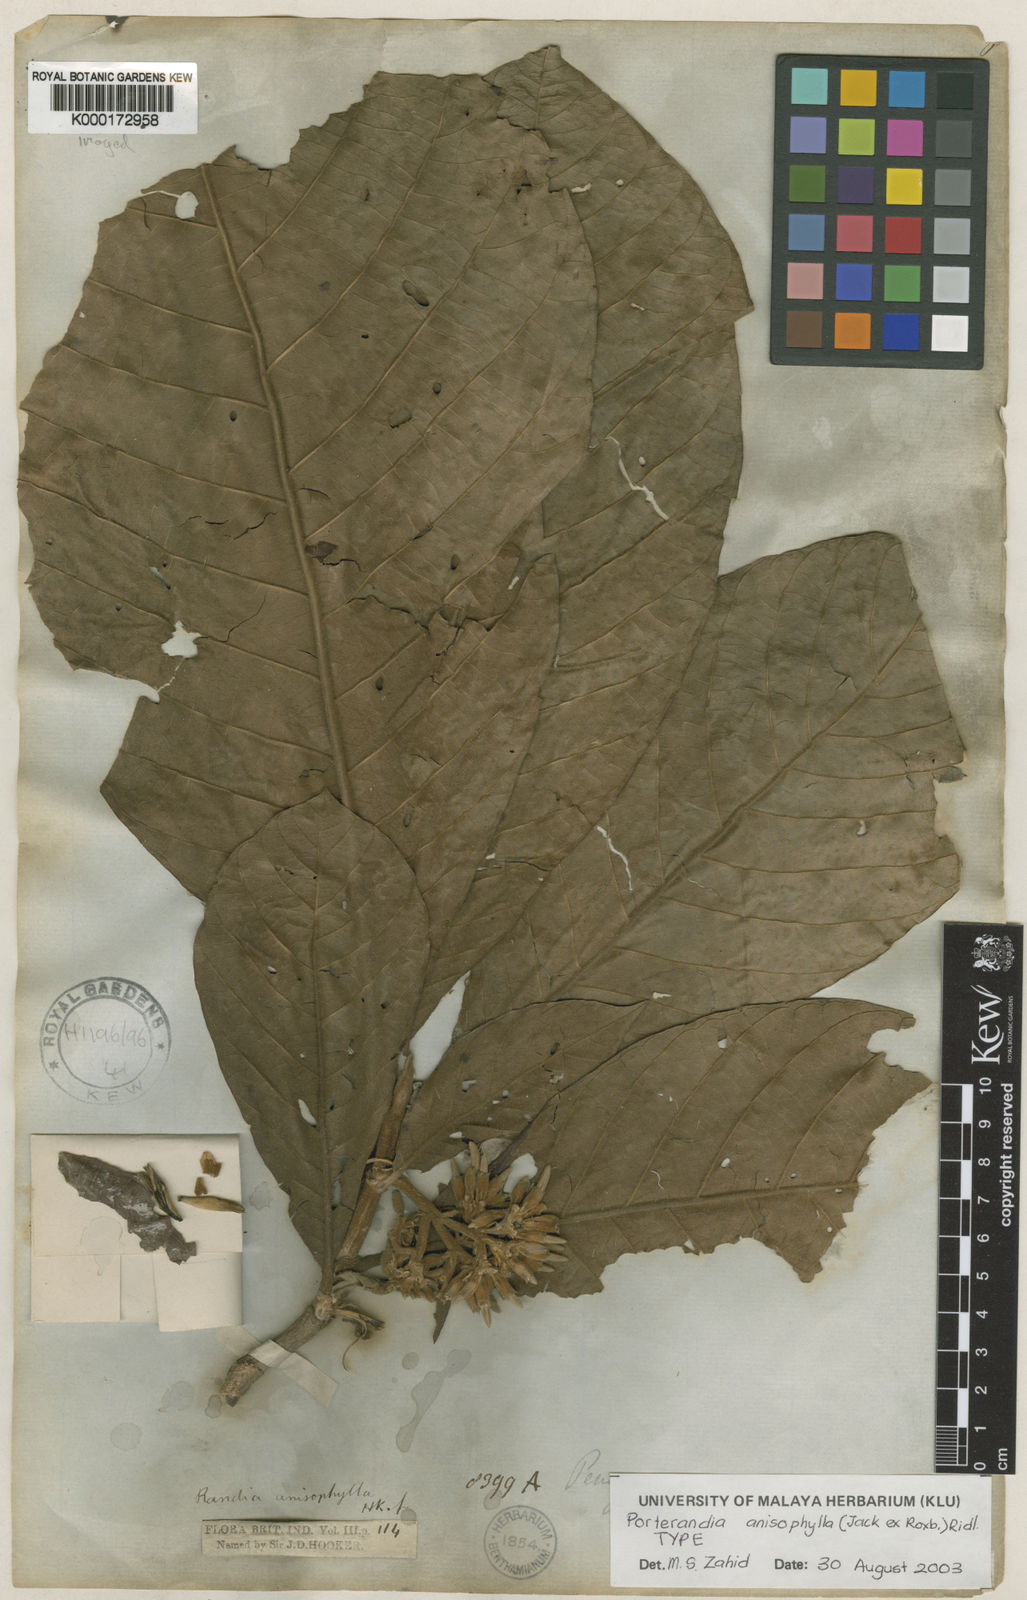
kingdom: Plantae
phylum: Tracheophyta
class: Magnoliopsida
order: Gentianales
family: Rubiaceae
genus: Porterandia
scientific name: Porterandia anisophylla
